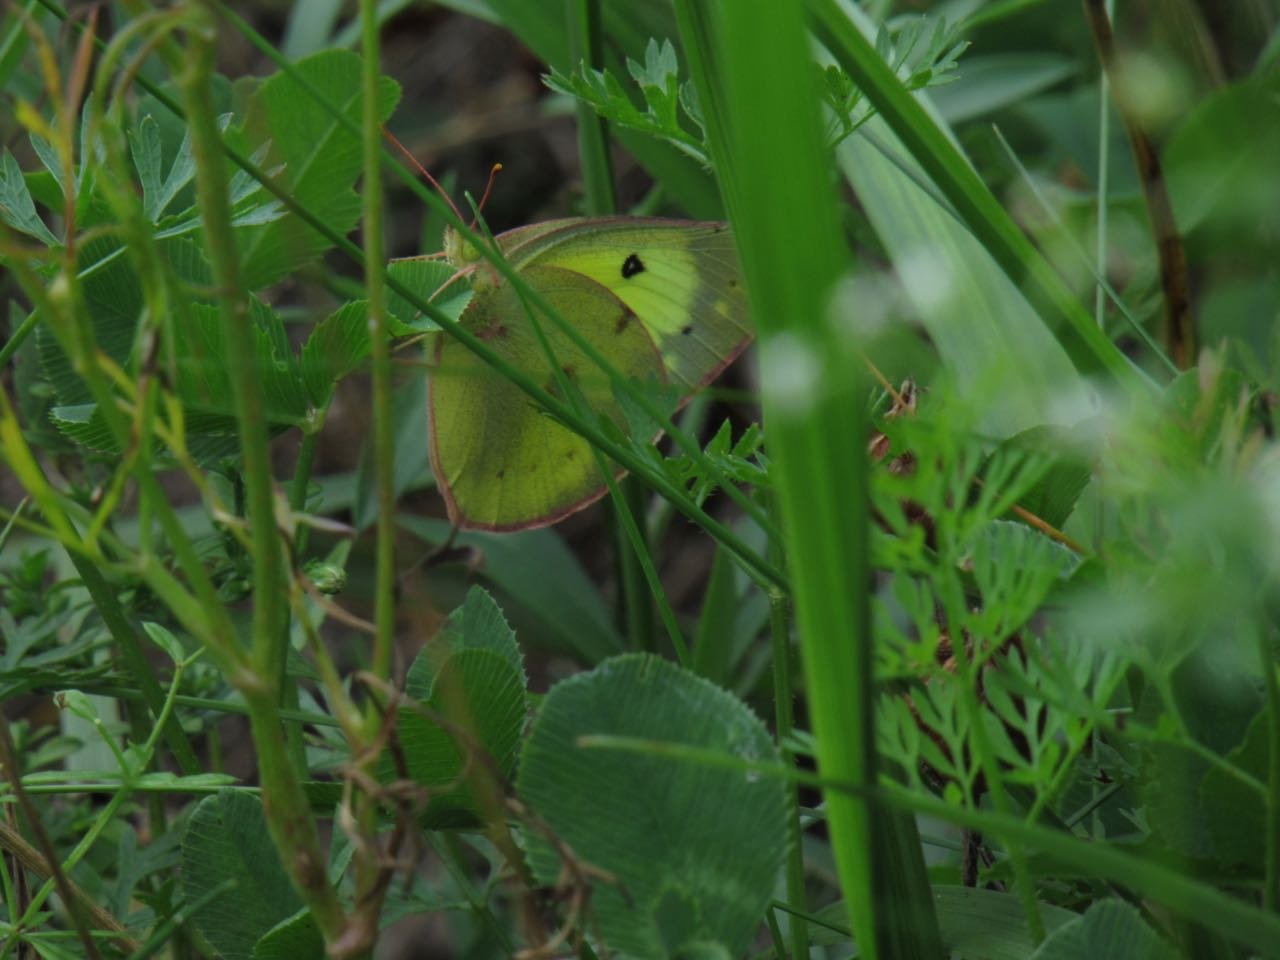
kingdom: Animalia
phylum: Arthropoda
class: Insecta
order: Lepidoptera
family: Pieridae
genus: Colias
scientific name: Colias philodice
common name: Clouded Sulphur
